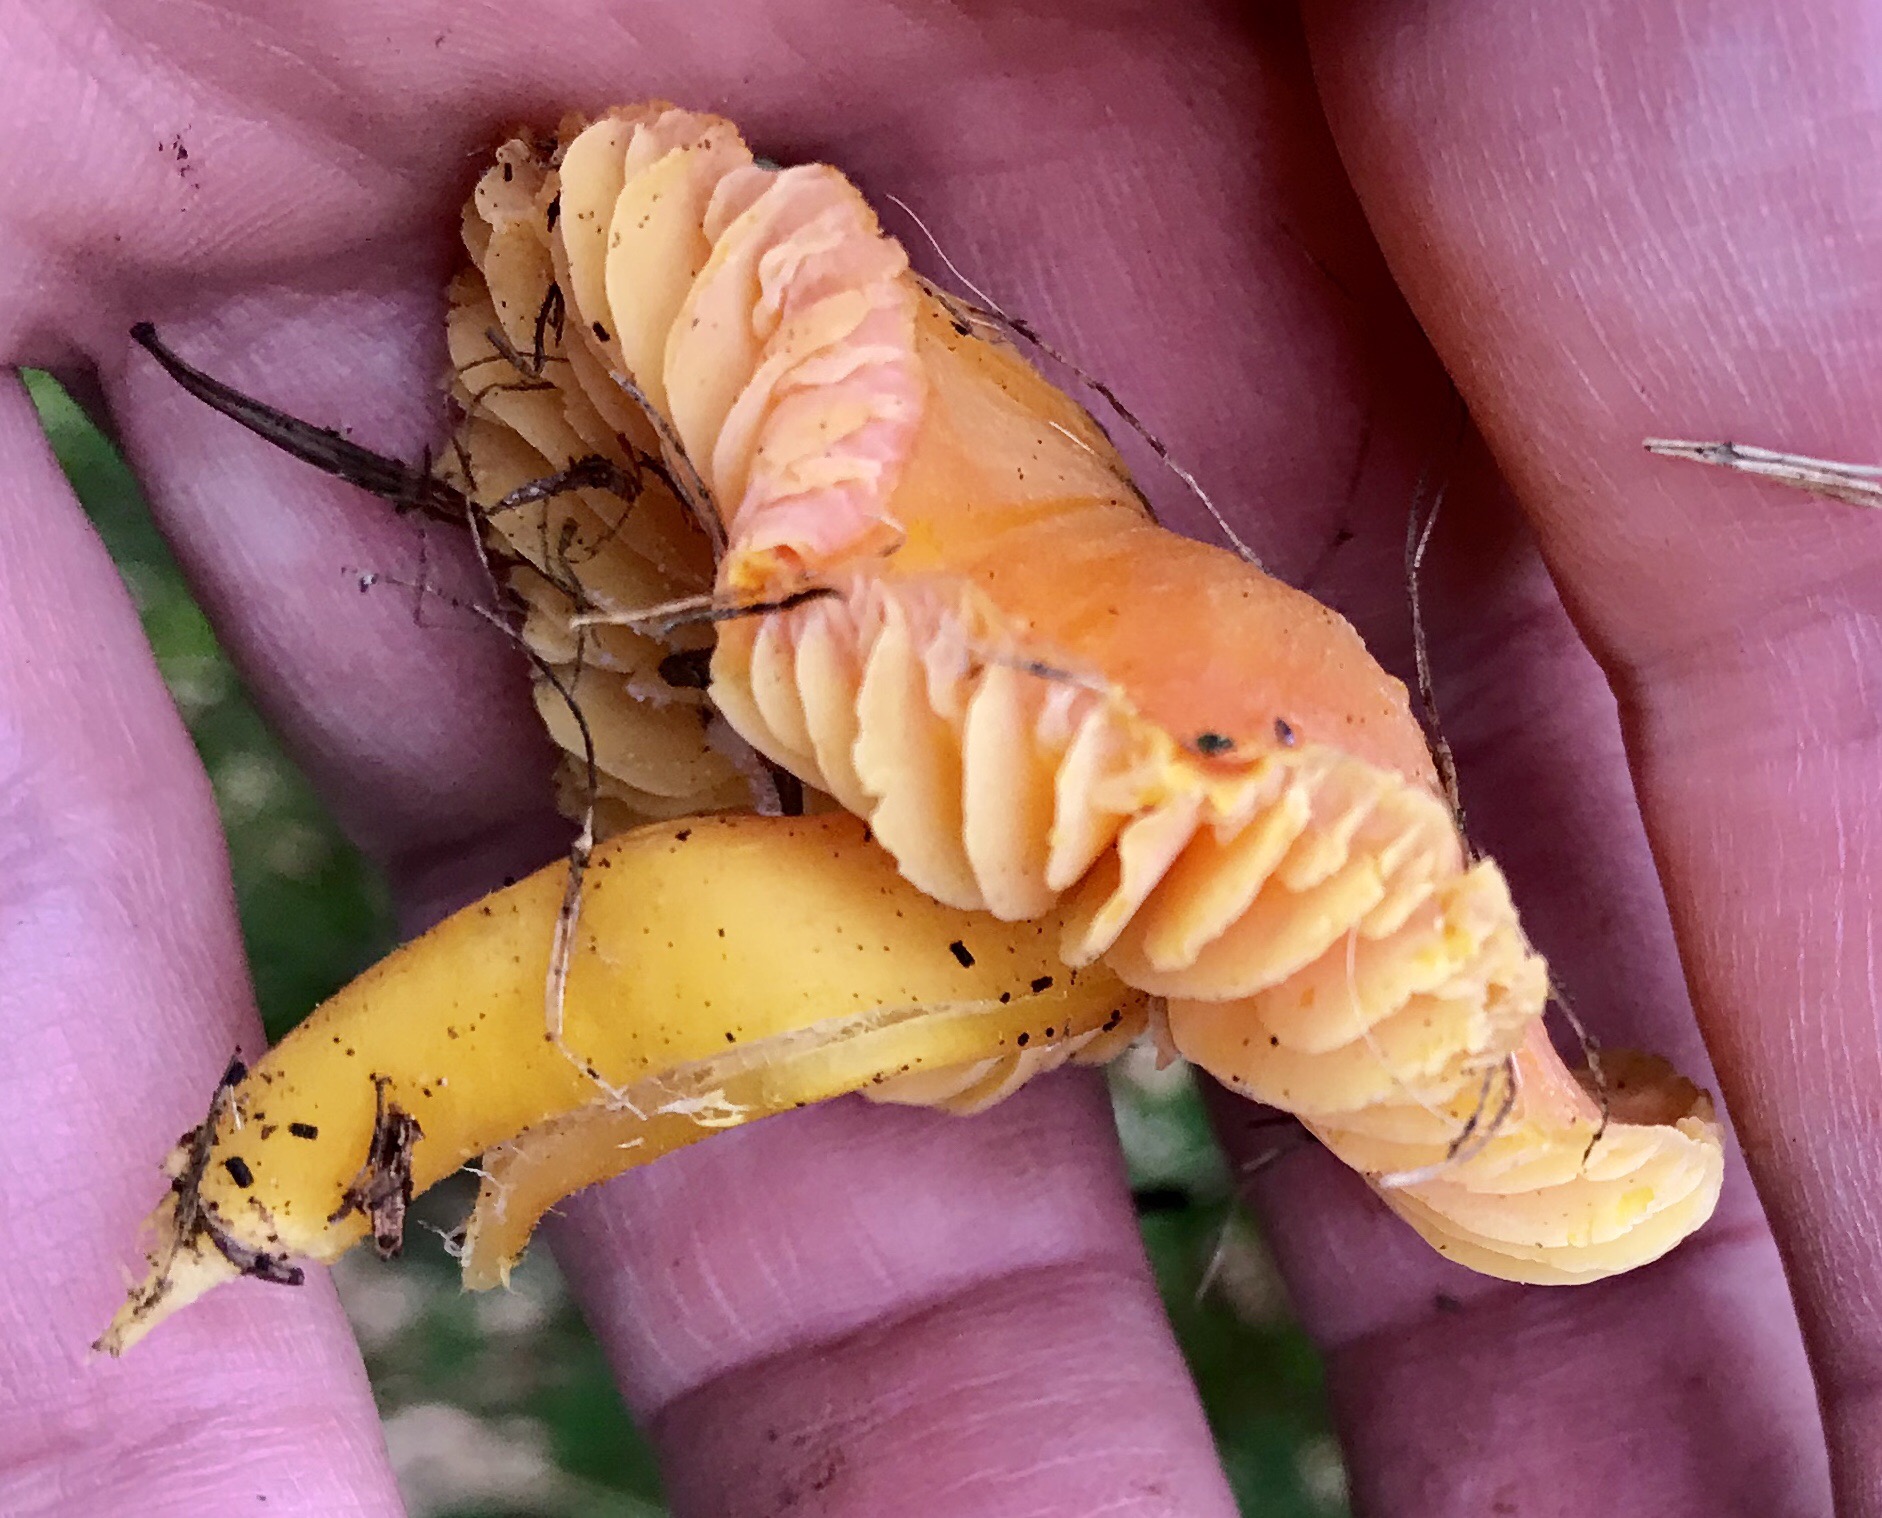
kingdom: Fungi
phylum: Basidiomycota
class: Agaricomycetes
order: Agaricales
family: Hygrophoraceae
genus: Hygrocybe
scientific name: Hygrocybe
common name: vokshat
